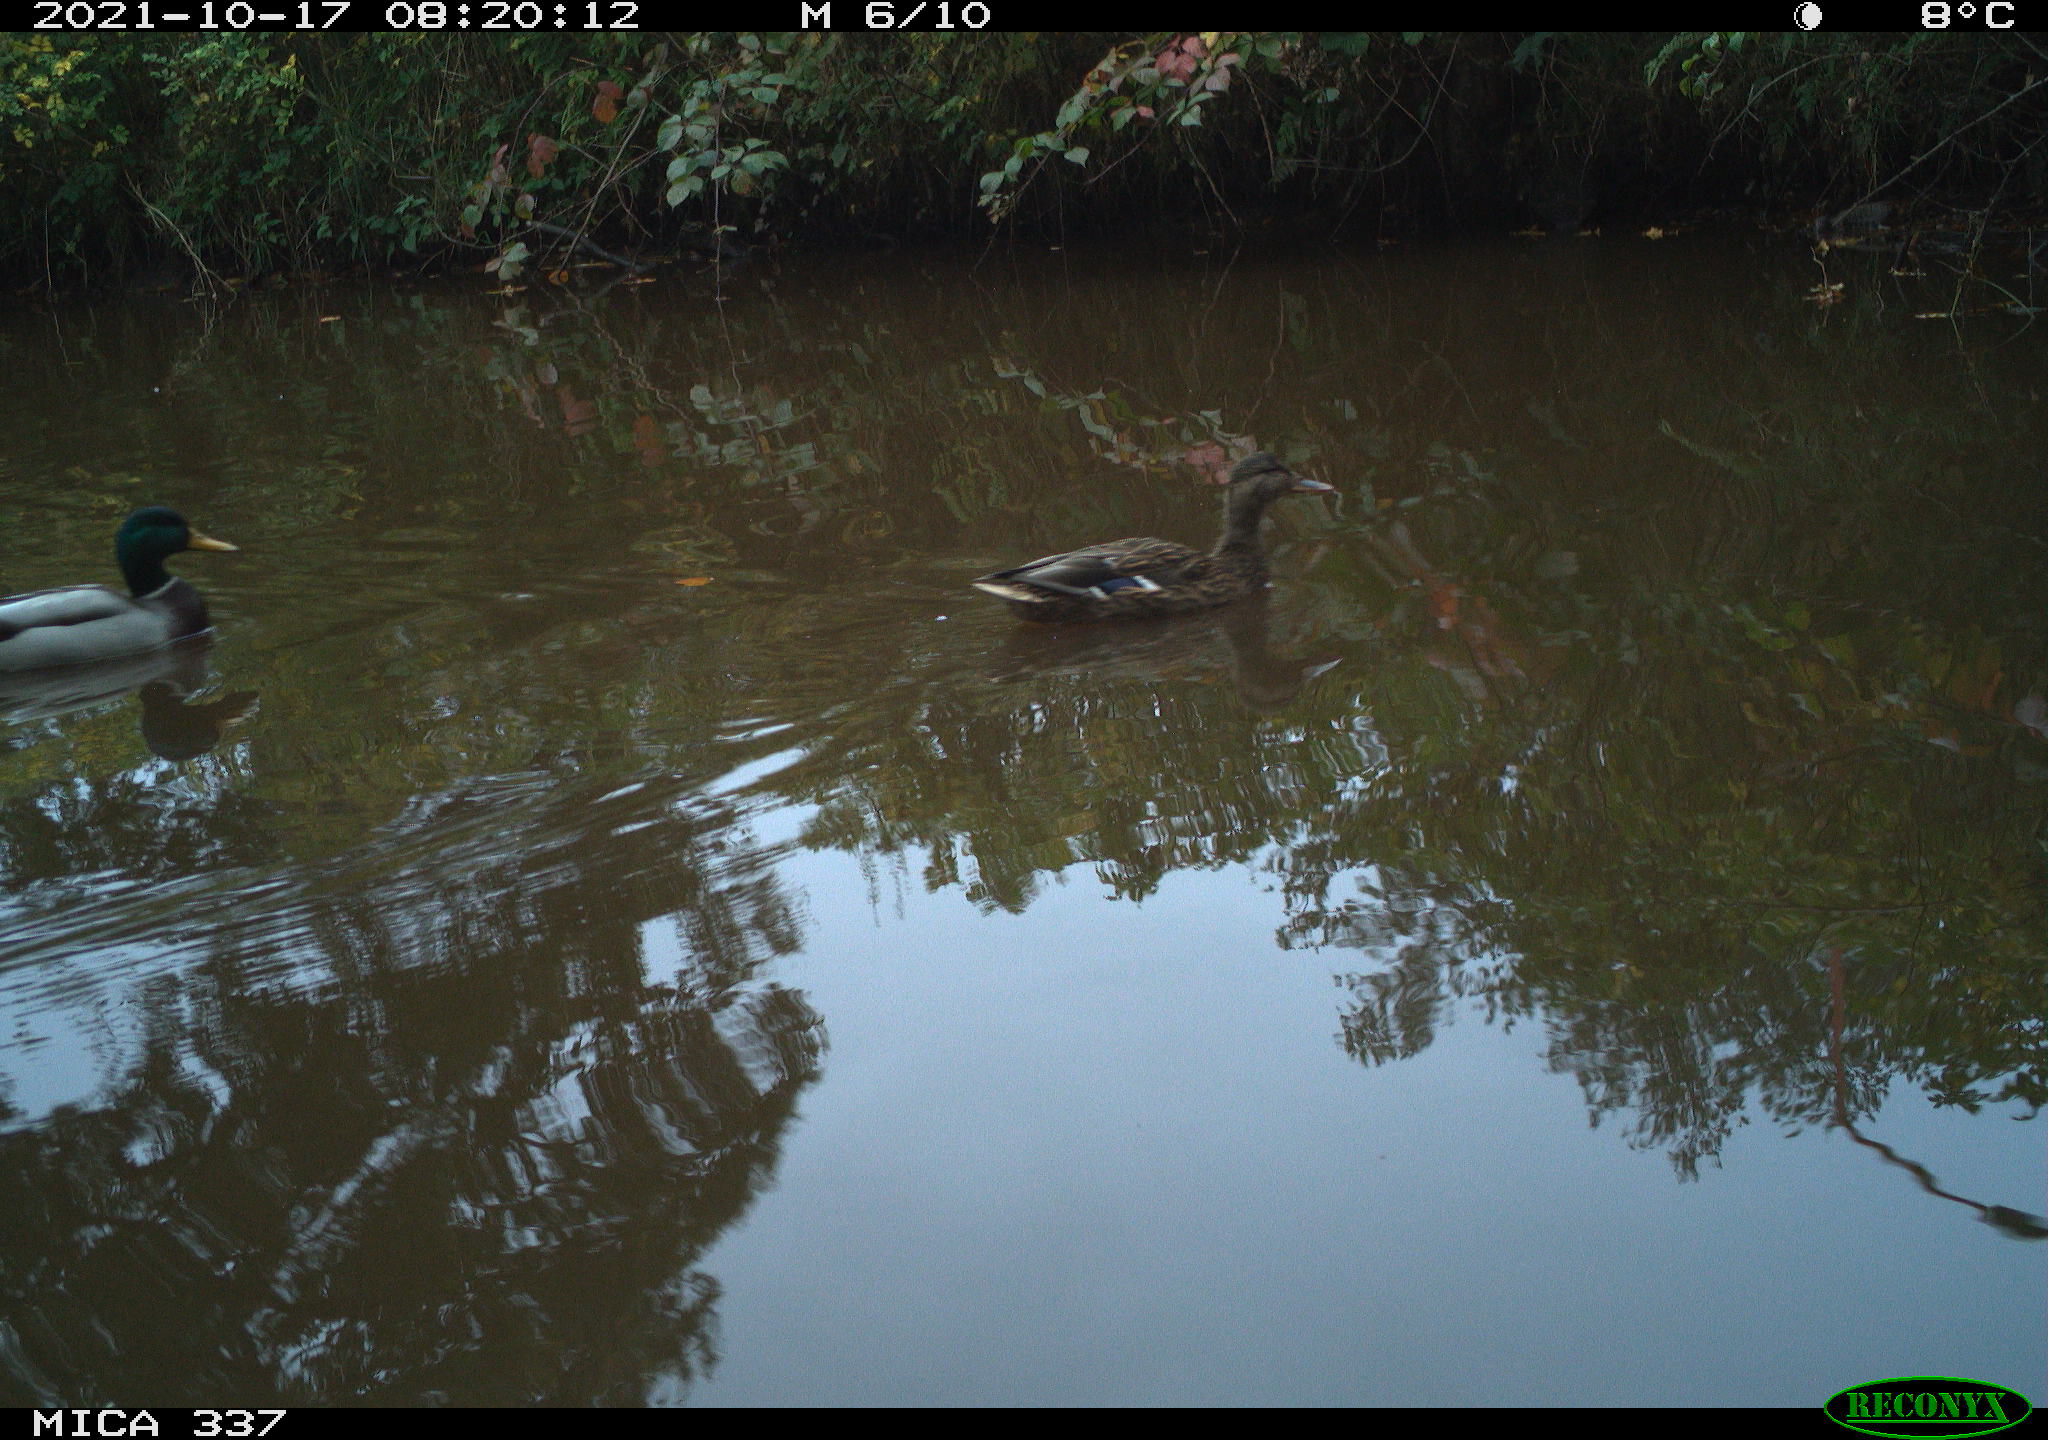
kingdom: Animalia
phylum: Chordata
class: Aves
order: Anseriformes
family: Anatidae
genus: Anas
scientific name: Anas platyrhynchos
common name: Mallard
